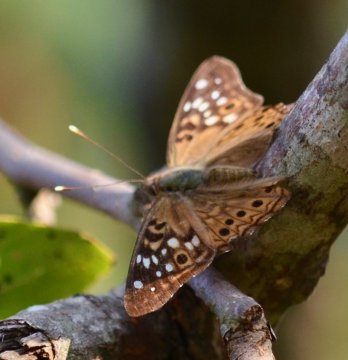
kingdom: Animalia
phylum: Arthropoda
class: Insecta
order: Lepidoptera
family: Nymphalidae
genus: Asterocampa
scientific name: Asterocampa celtis
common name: Hackberry Emperor
